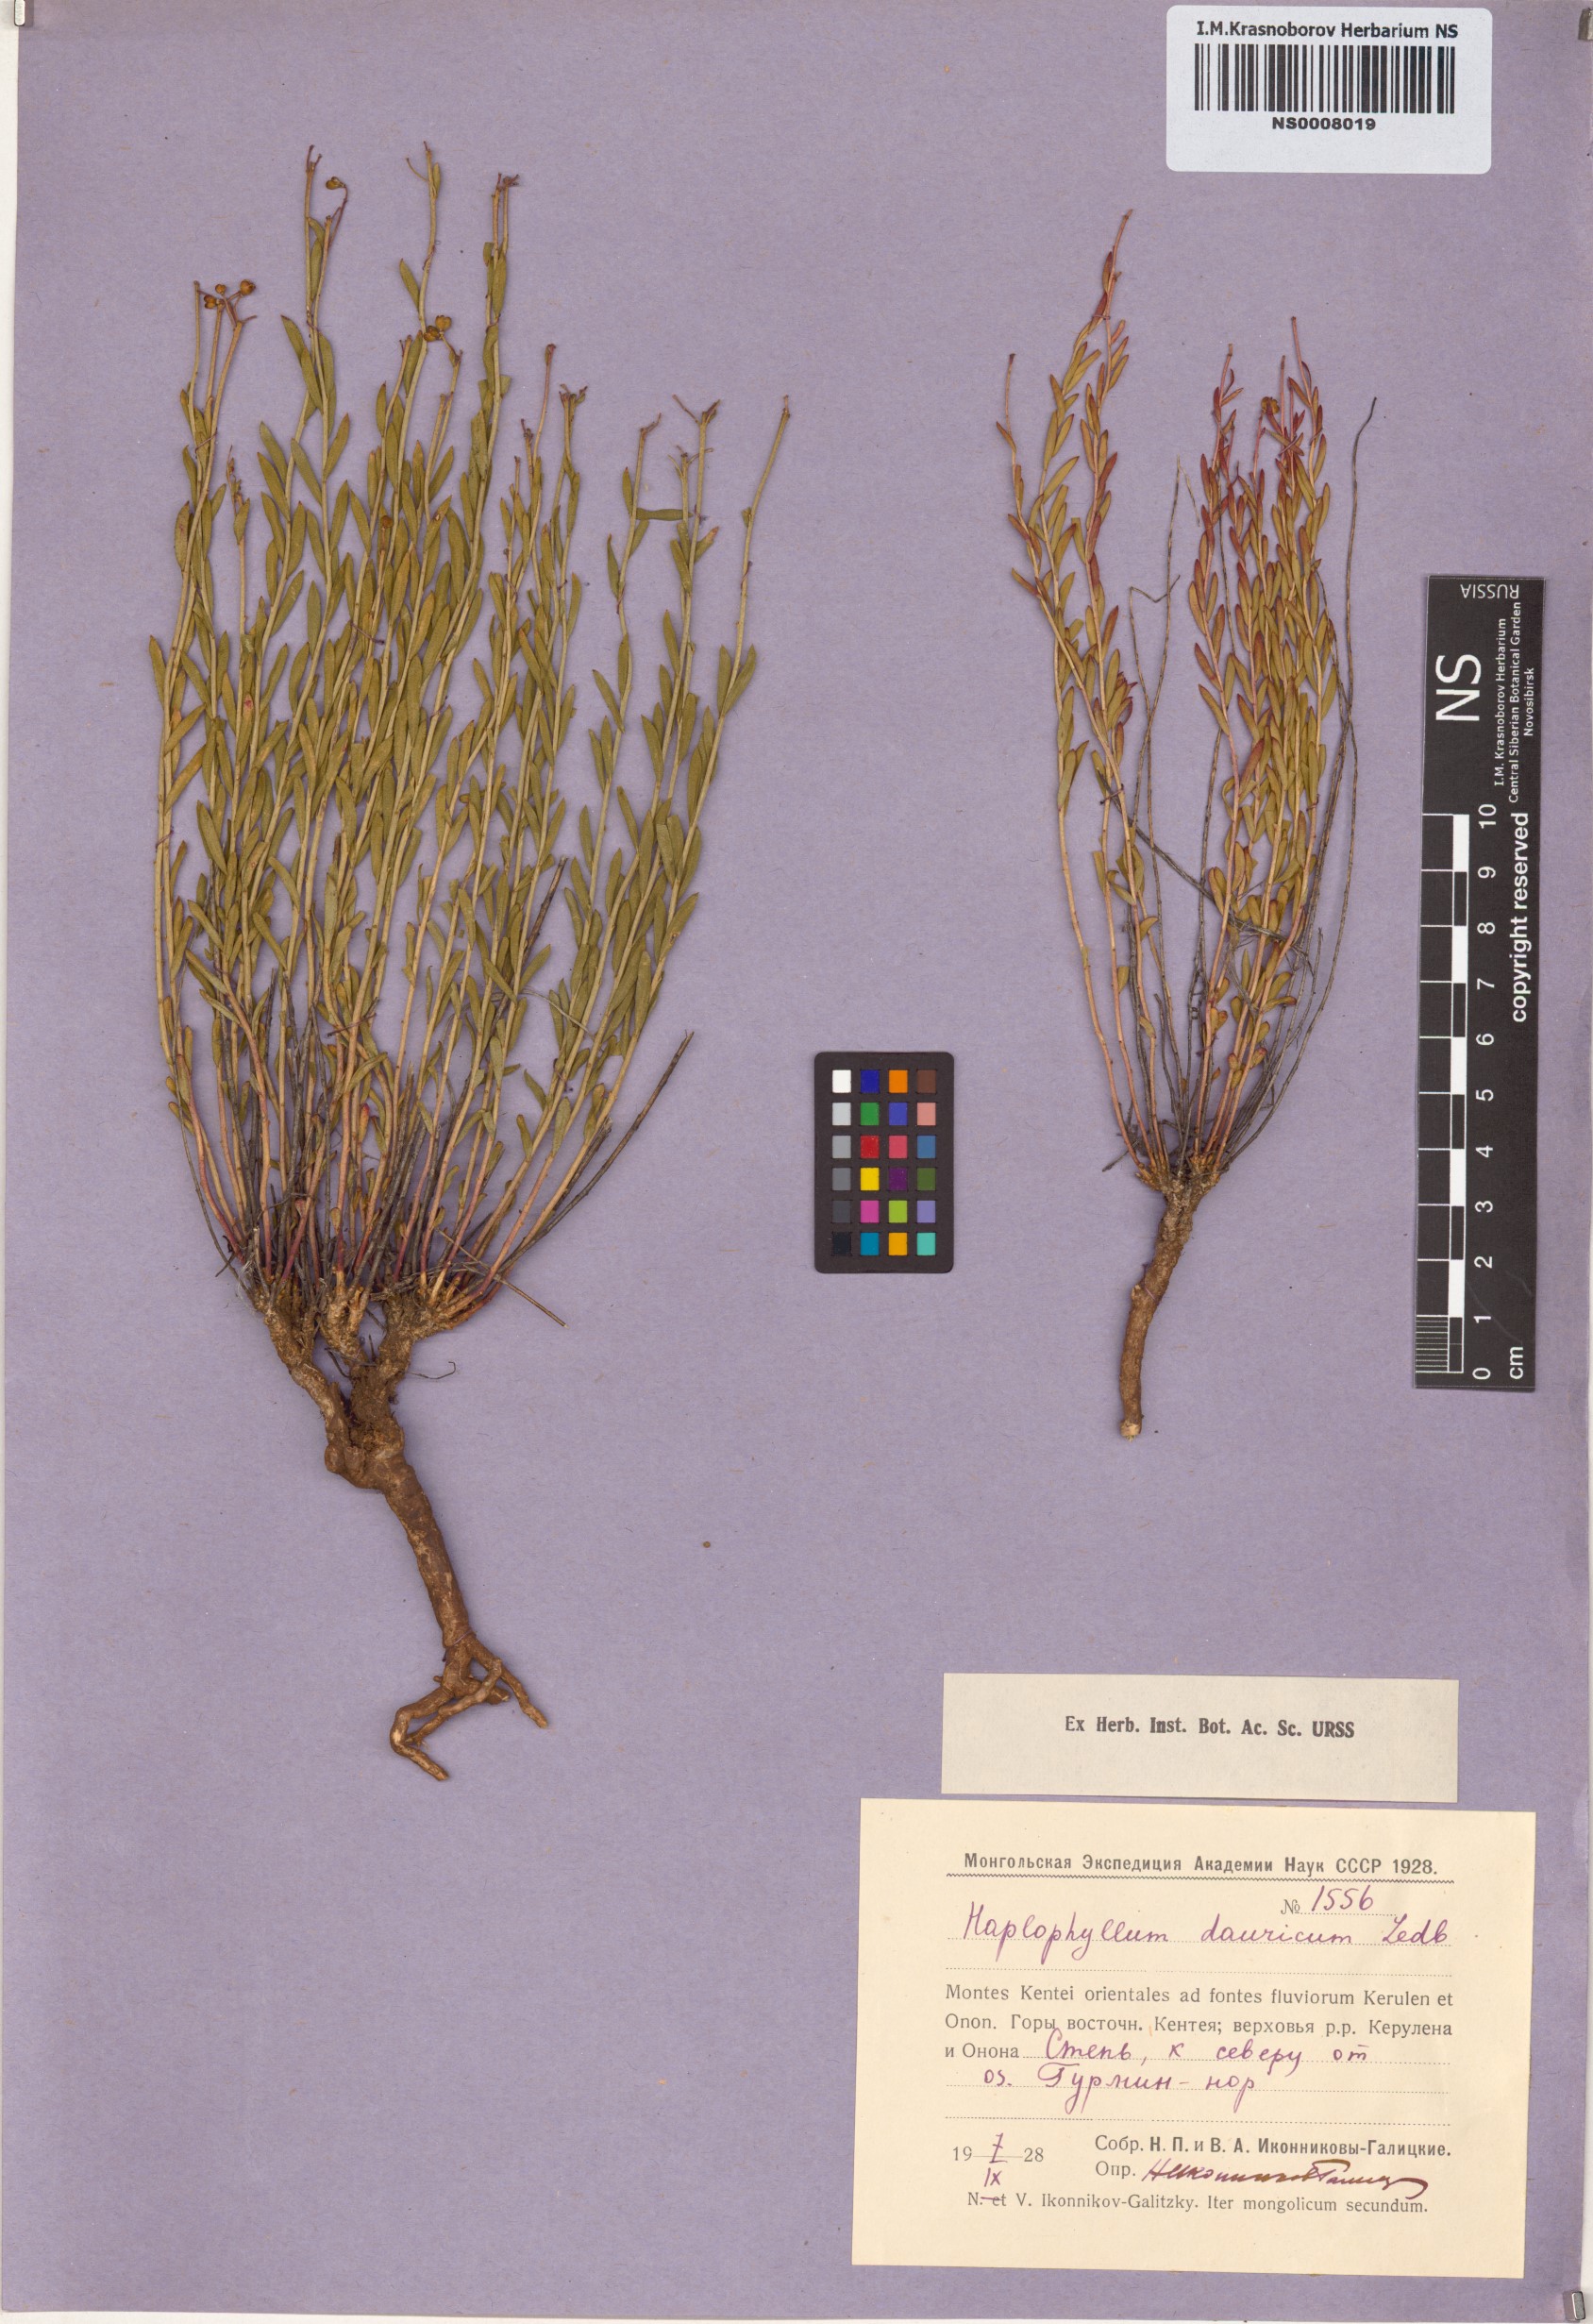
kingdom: Plantae
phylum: Tracheophyta
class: Magnoliopsida
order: Sapindales
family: Rutaceae
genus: Haplophyllum
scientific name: Haplophyllum dauricum
